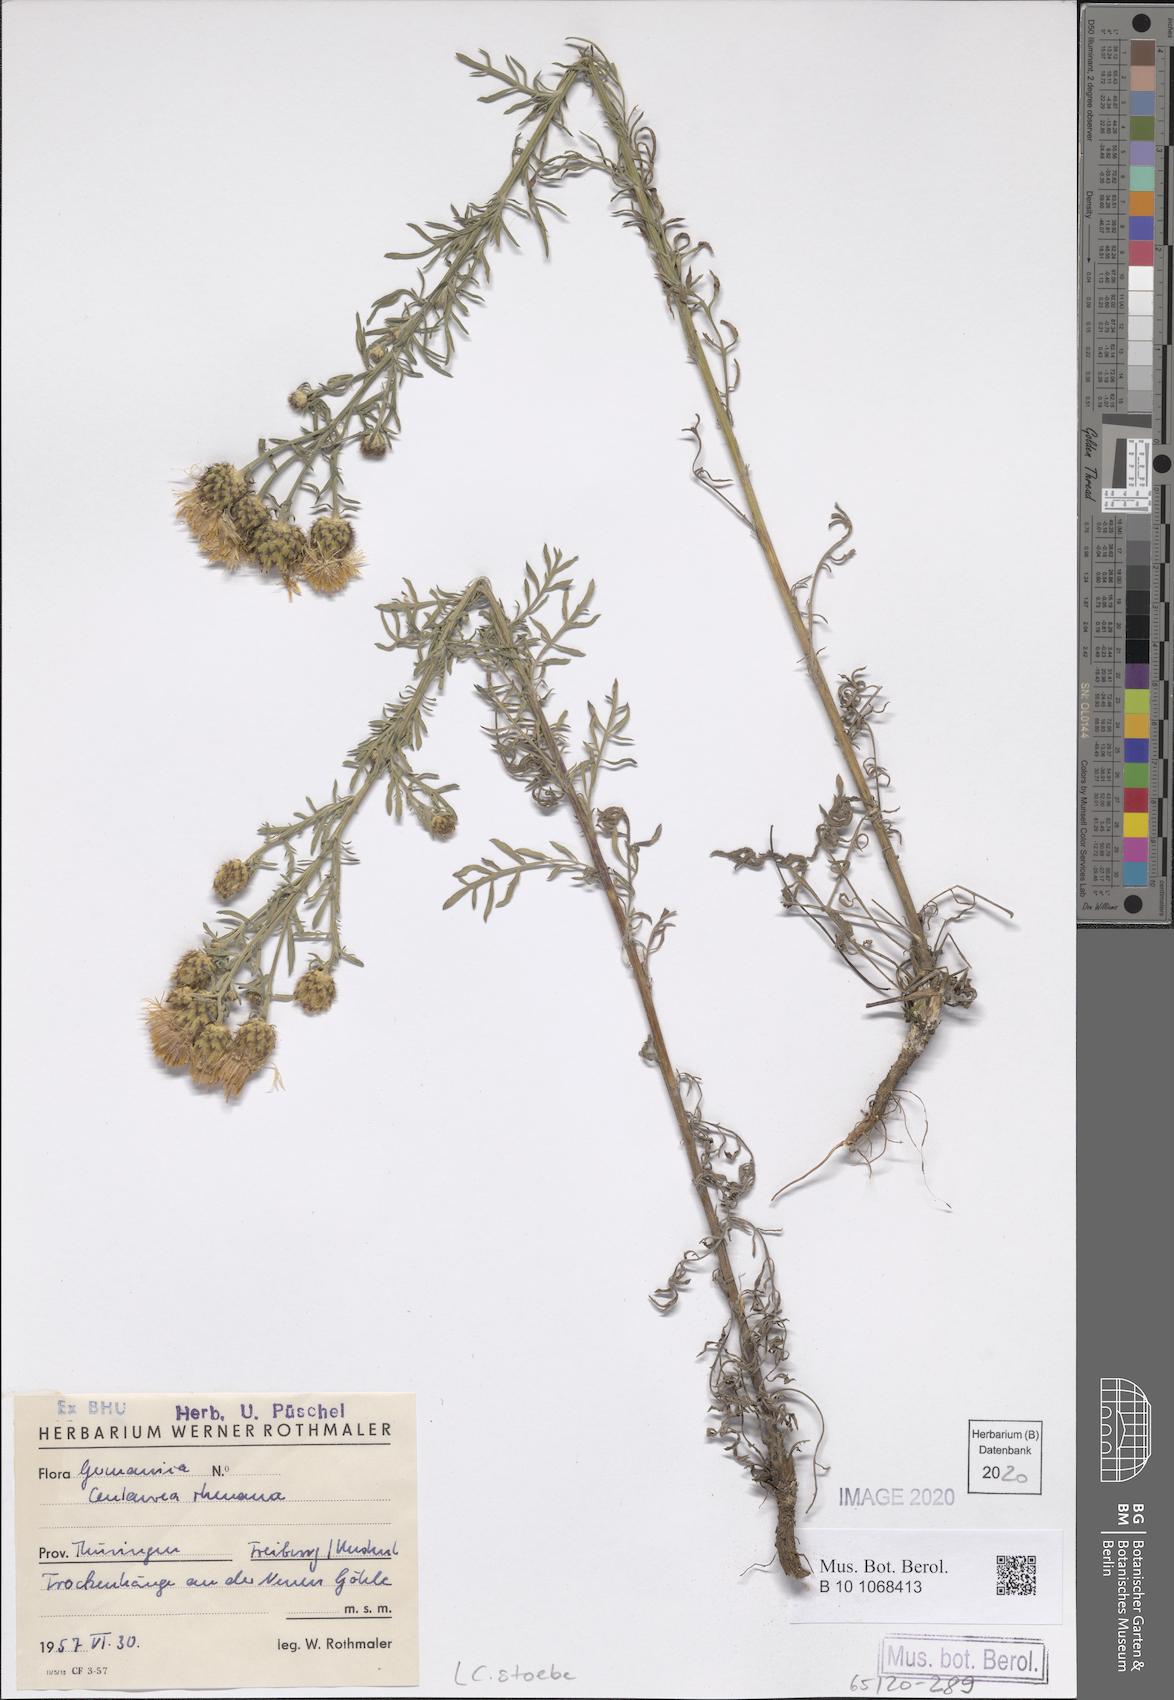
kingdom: Plantae
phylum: Tracheophyta
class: Magnoliopsida
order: Asterales
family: Asteraceae
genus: Centaurea
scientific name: Centaurea stoebe
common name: Spotted knapweed
